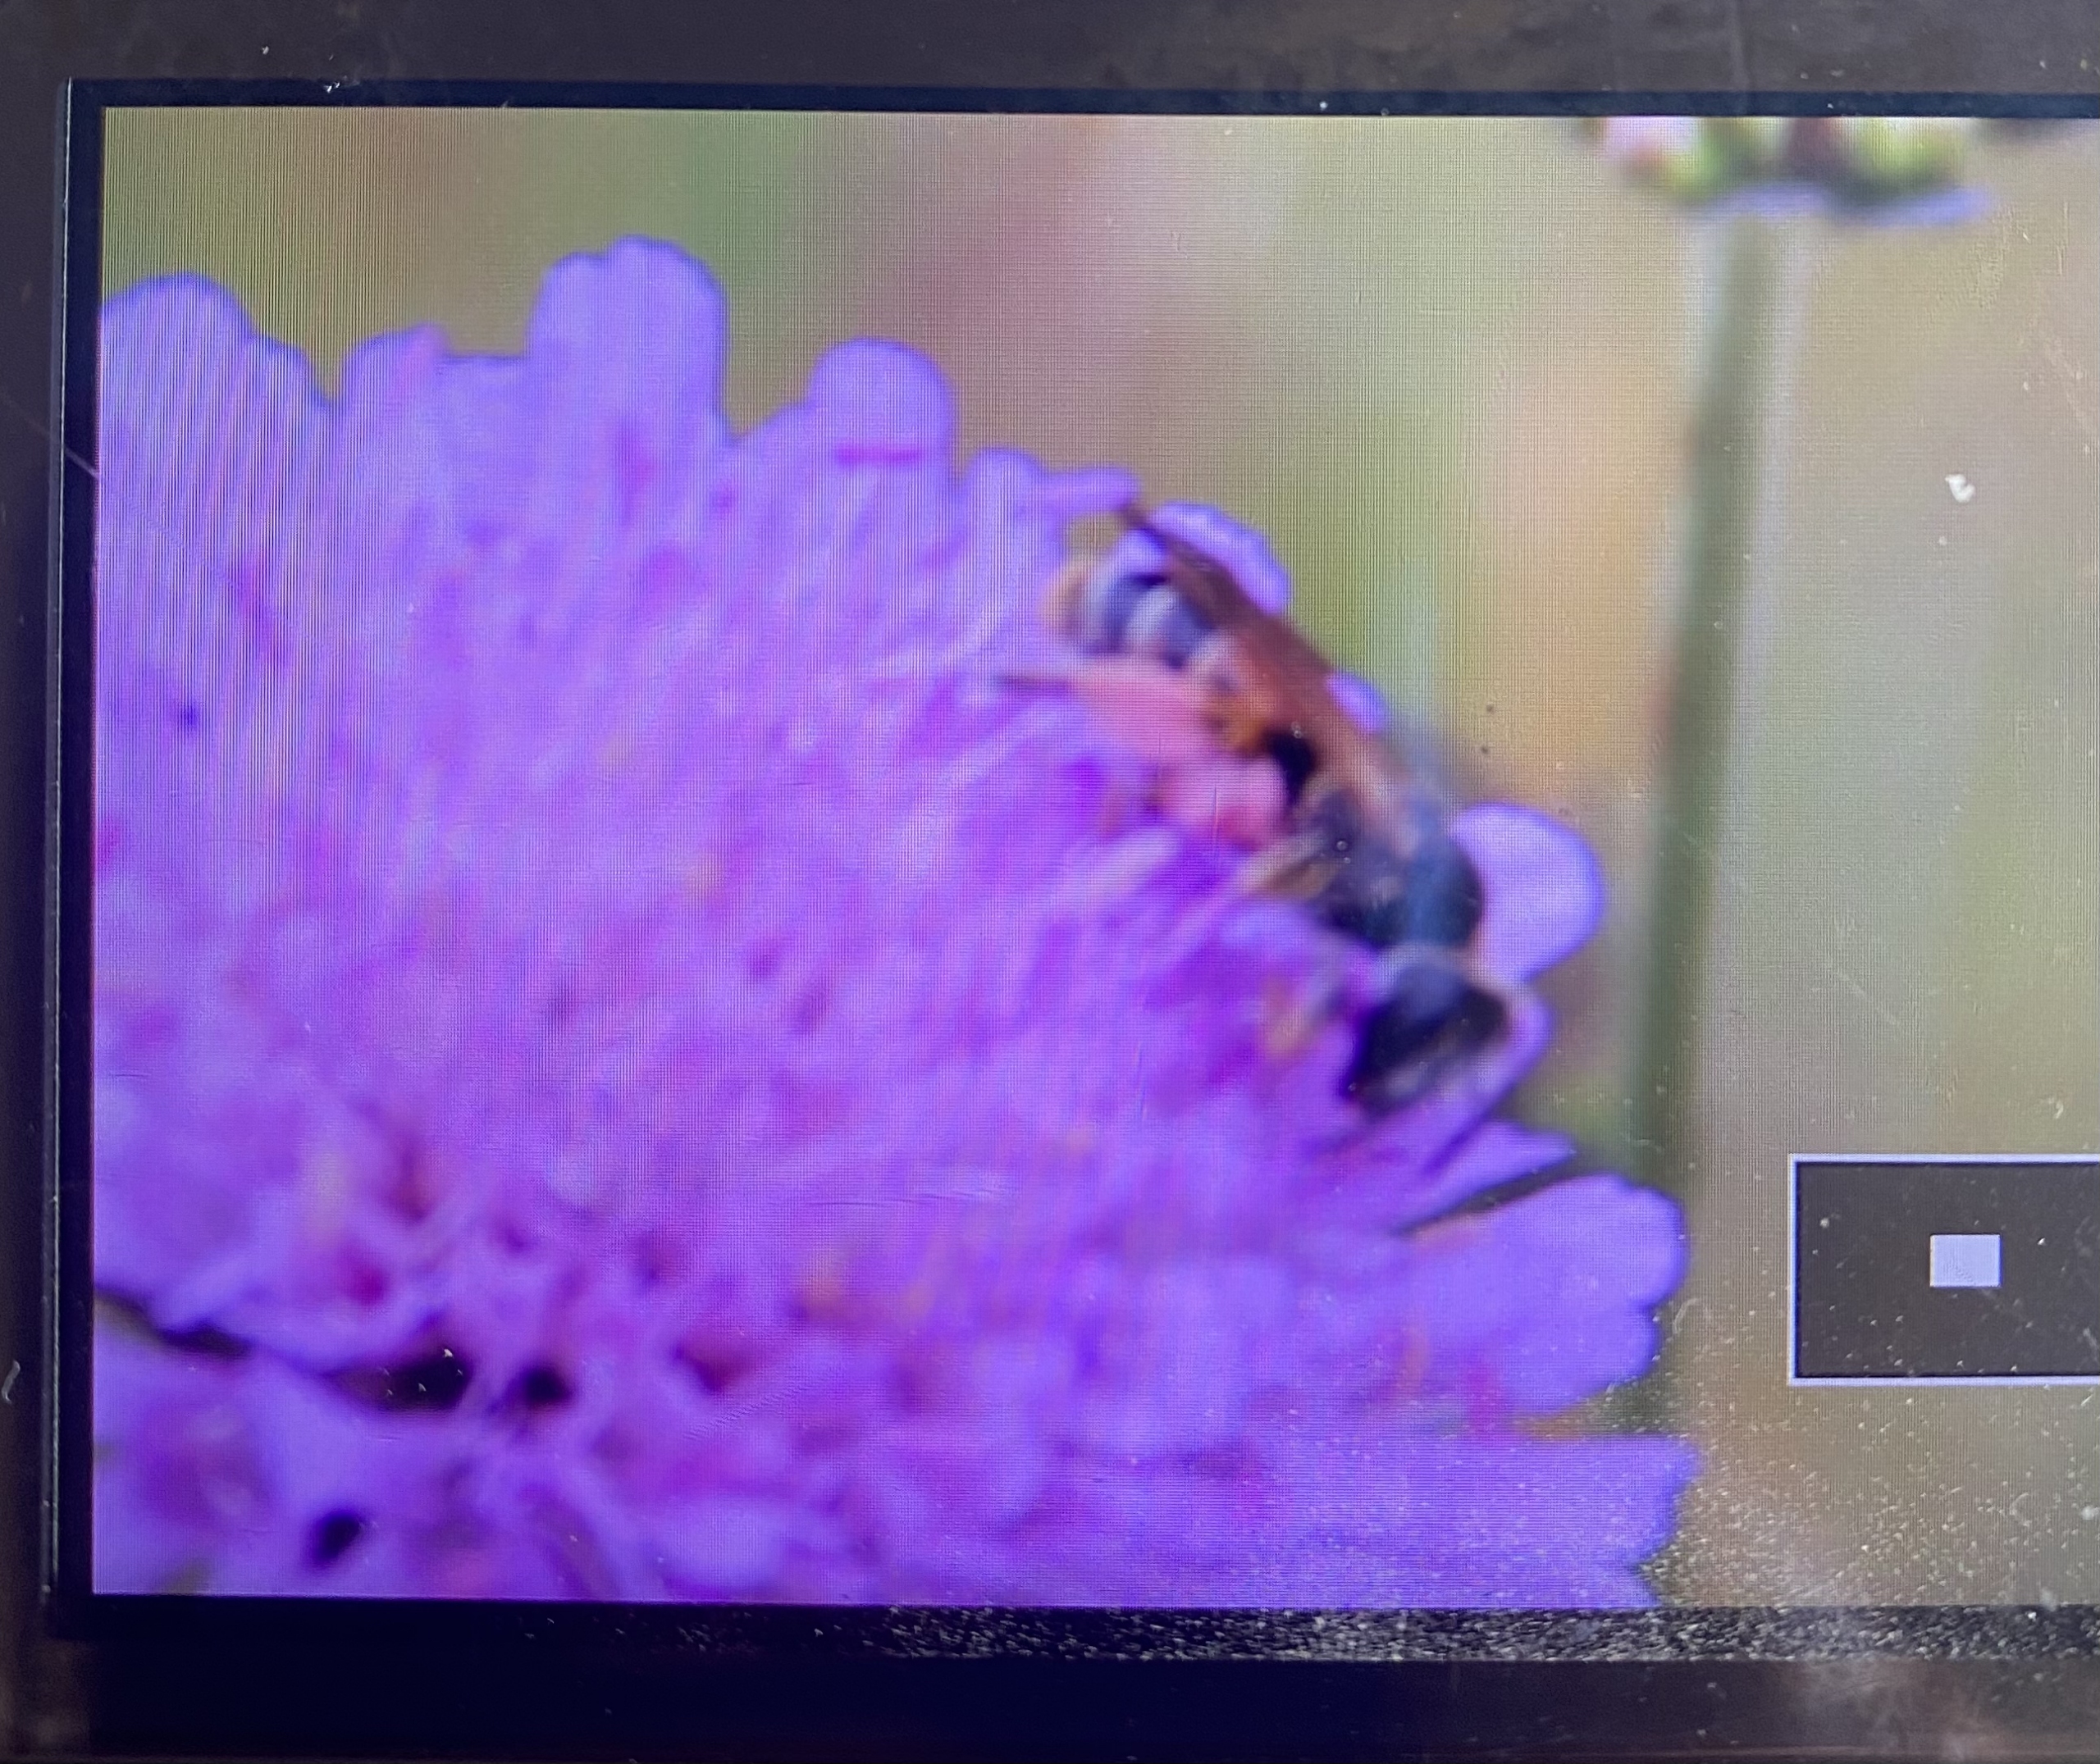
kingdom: Animalia
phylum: Arthropoda
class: Insecta
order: Hymenoptera
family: Andrenidae
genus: Andrena
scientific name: Andrena hattorfiana
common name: Blåhatjordbi
